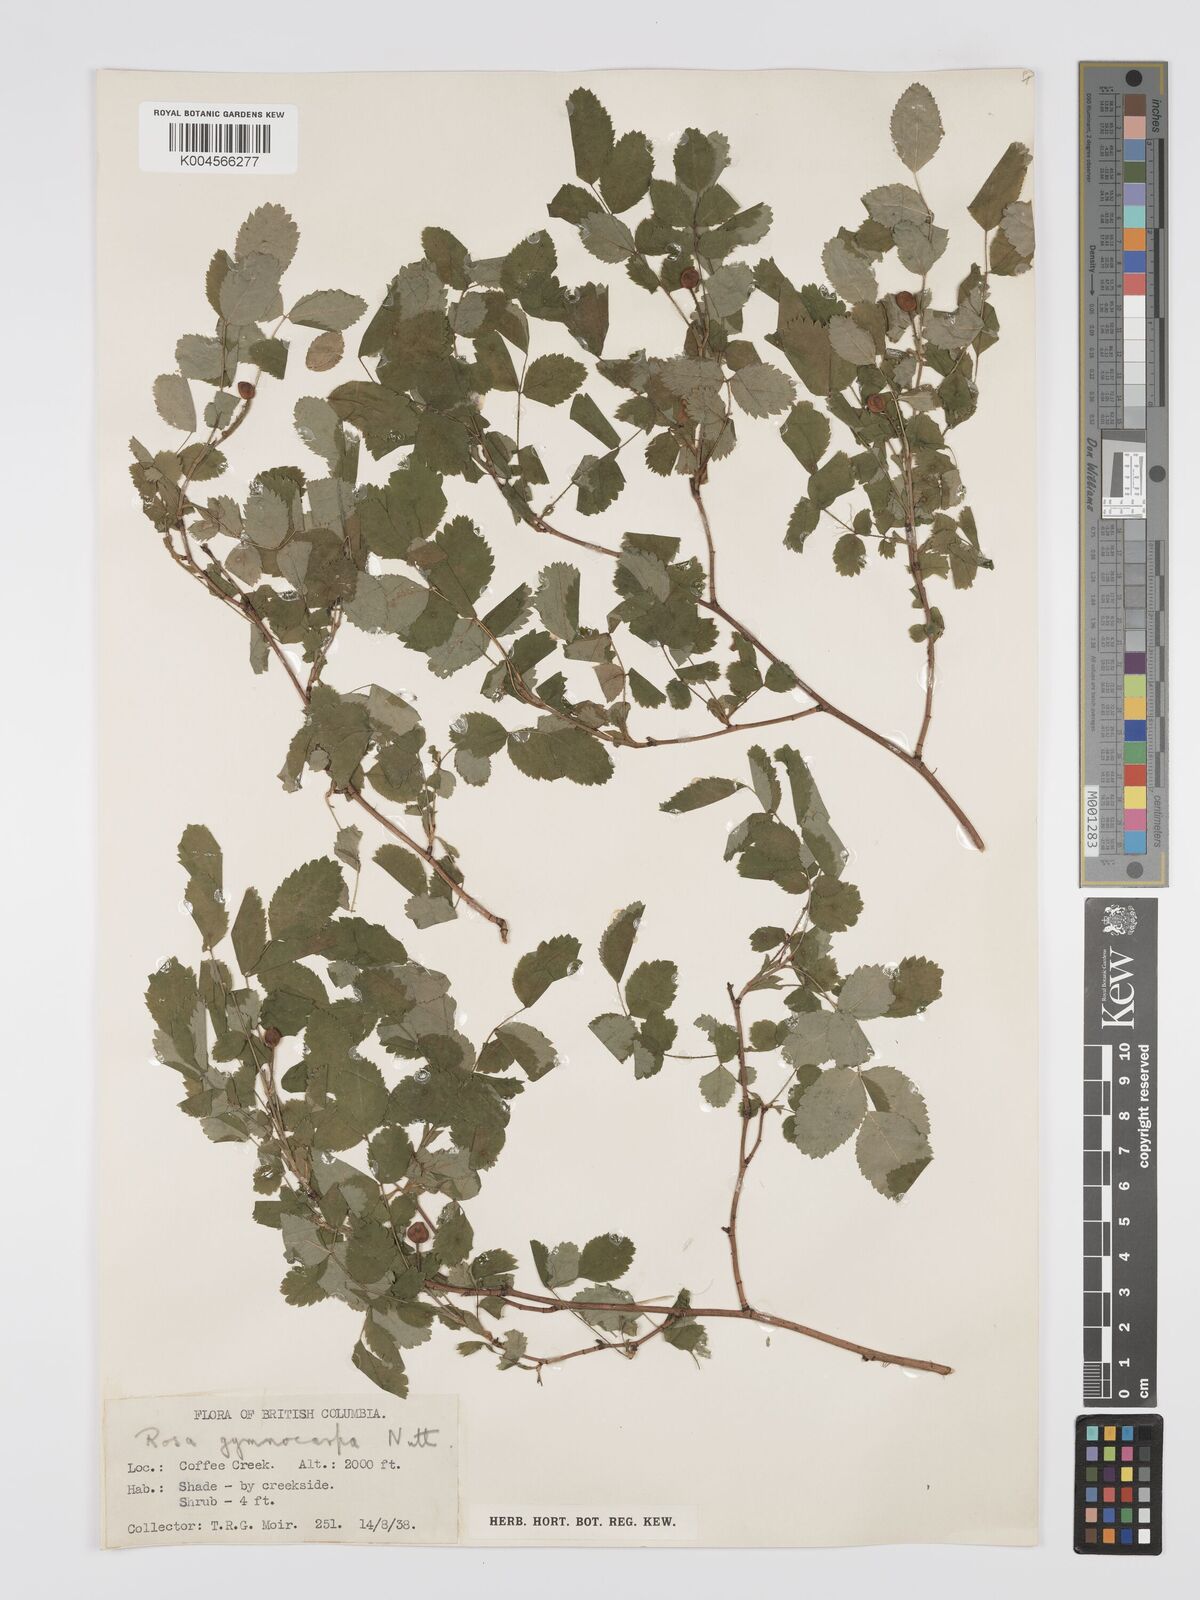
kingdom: Plantae
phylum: Tracheophyta
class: Magnoliopsida
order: Rosales
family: Rosaceae
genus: Rosa
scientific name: Rosa gymnocarpa
